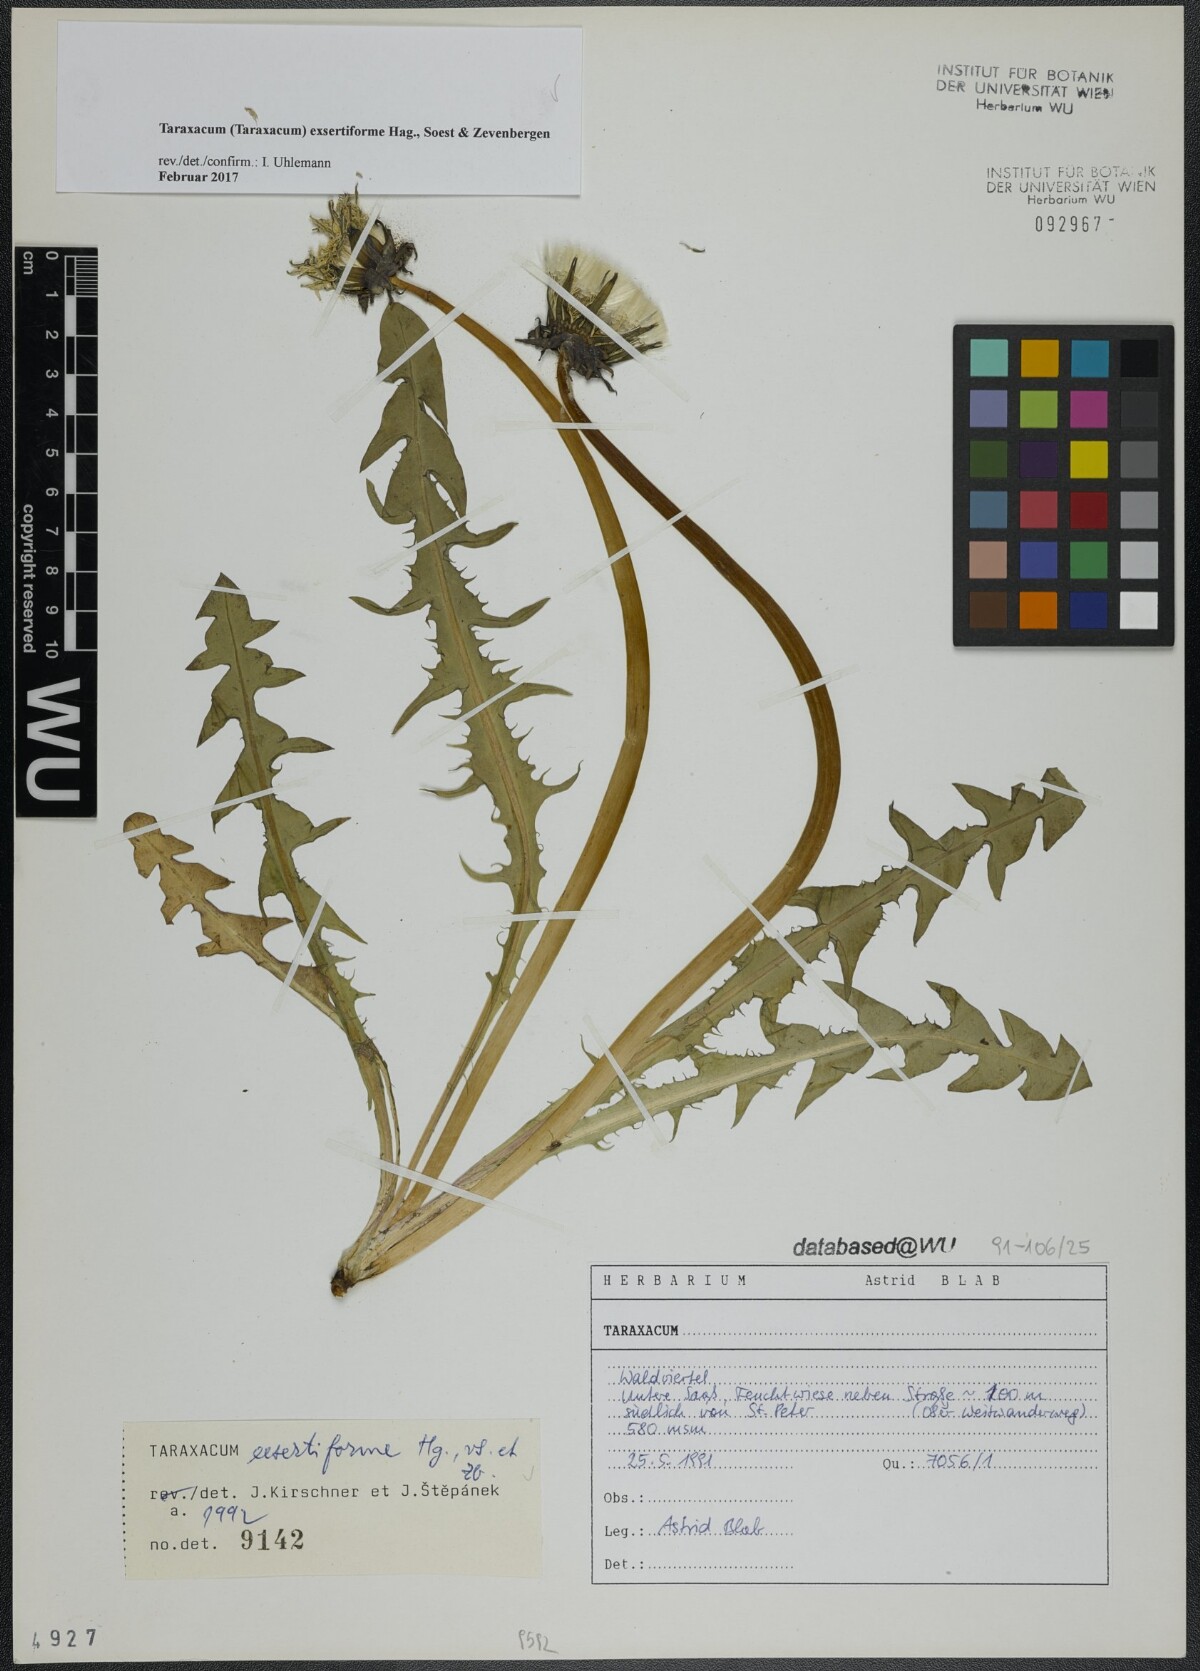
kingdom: Plantae
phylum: Tracheophyta
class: Magnoliopsida
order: Asterales
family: Asteraceae
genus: Taraxacum
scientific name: Taraxacum exsertiforme
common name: Erect-bracted dandelion
